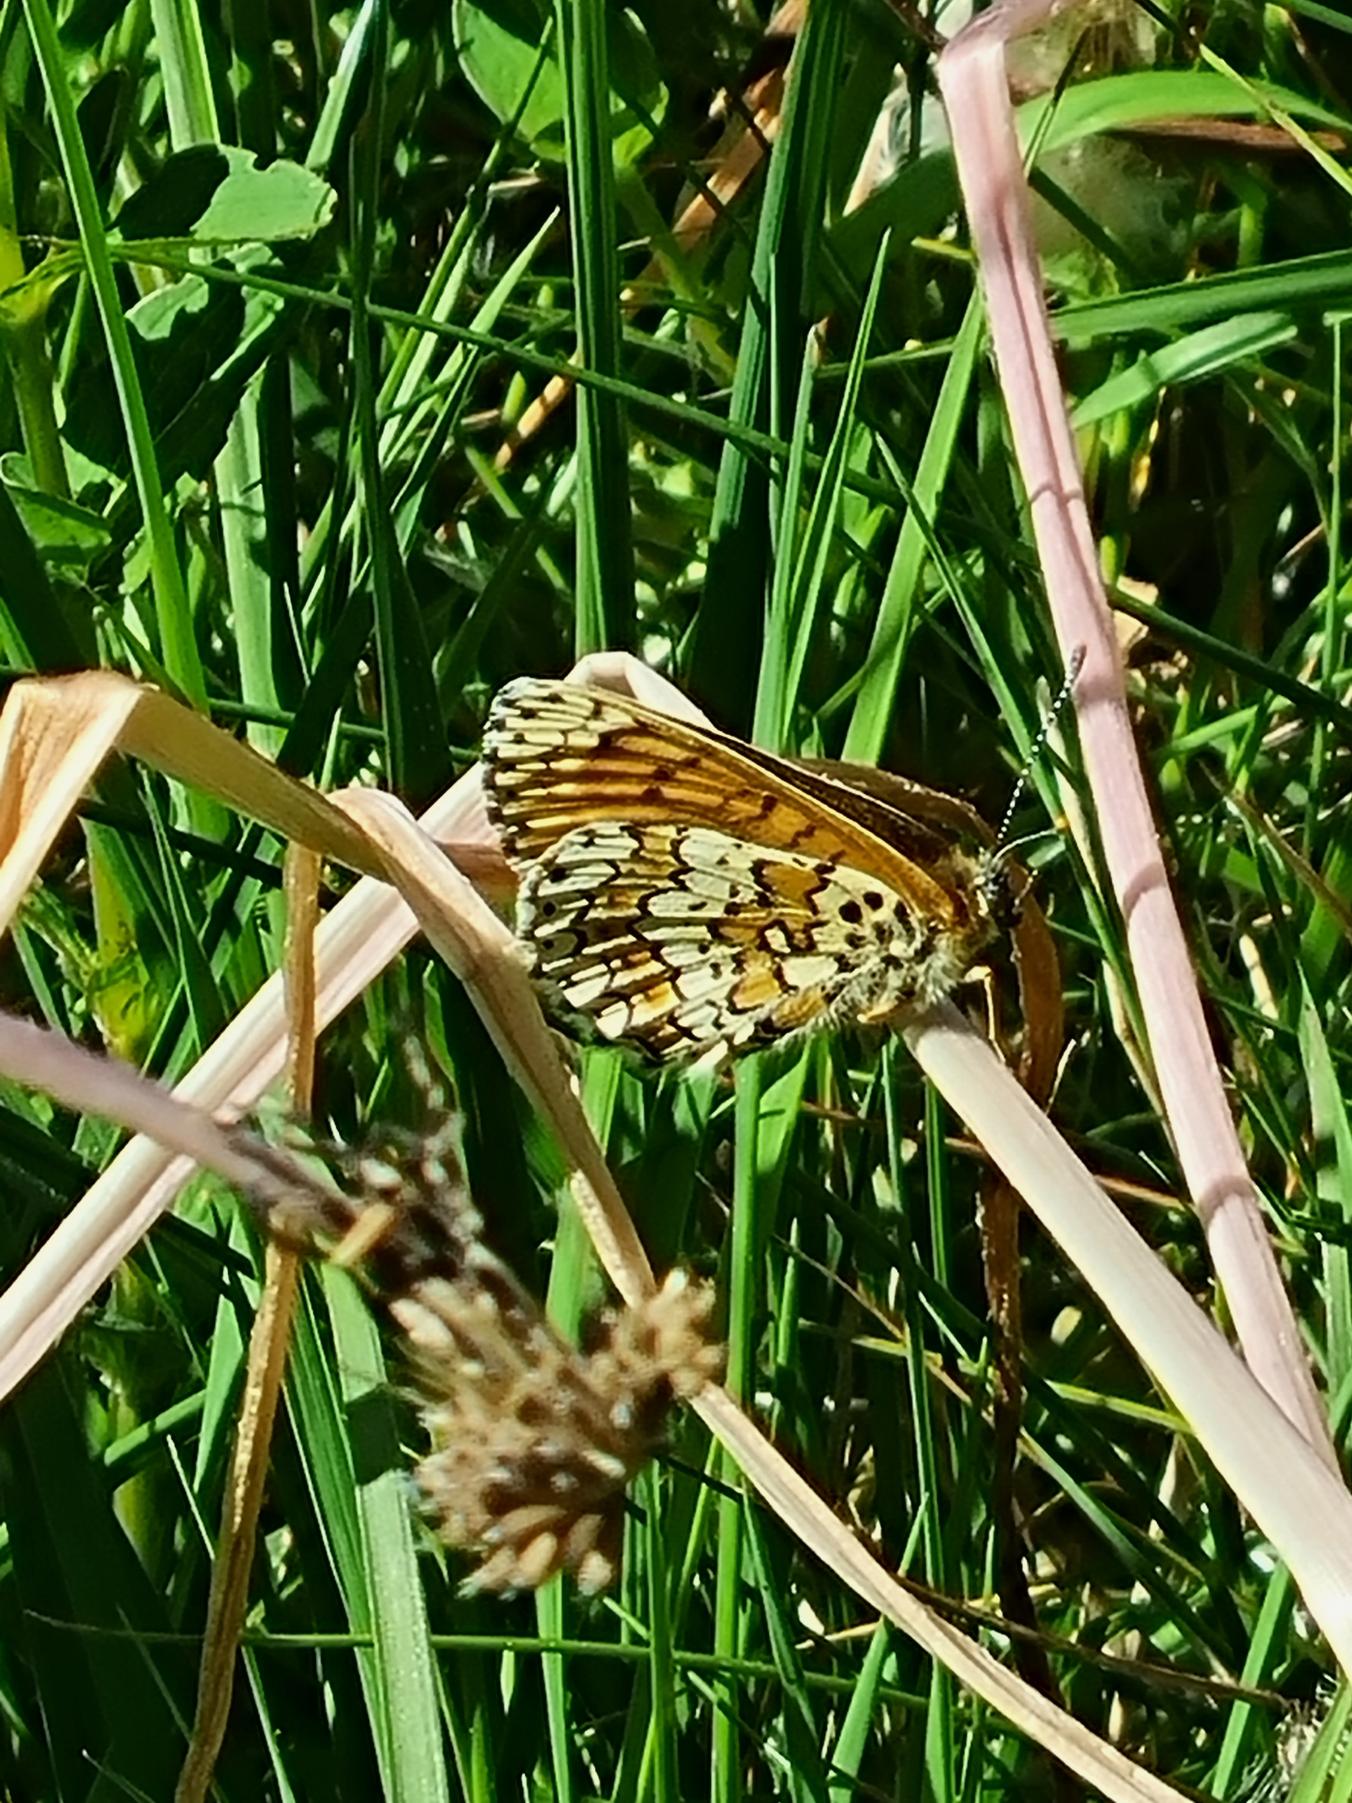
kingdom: Animalia
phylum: Arthropoda
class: Insecta
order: Lepidoptera
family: Nymphalidae
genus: Melitaea
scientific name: Melitaea cinxia
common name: Okkergul pletvinge
